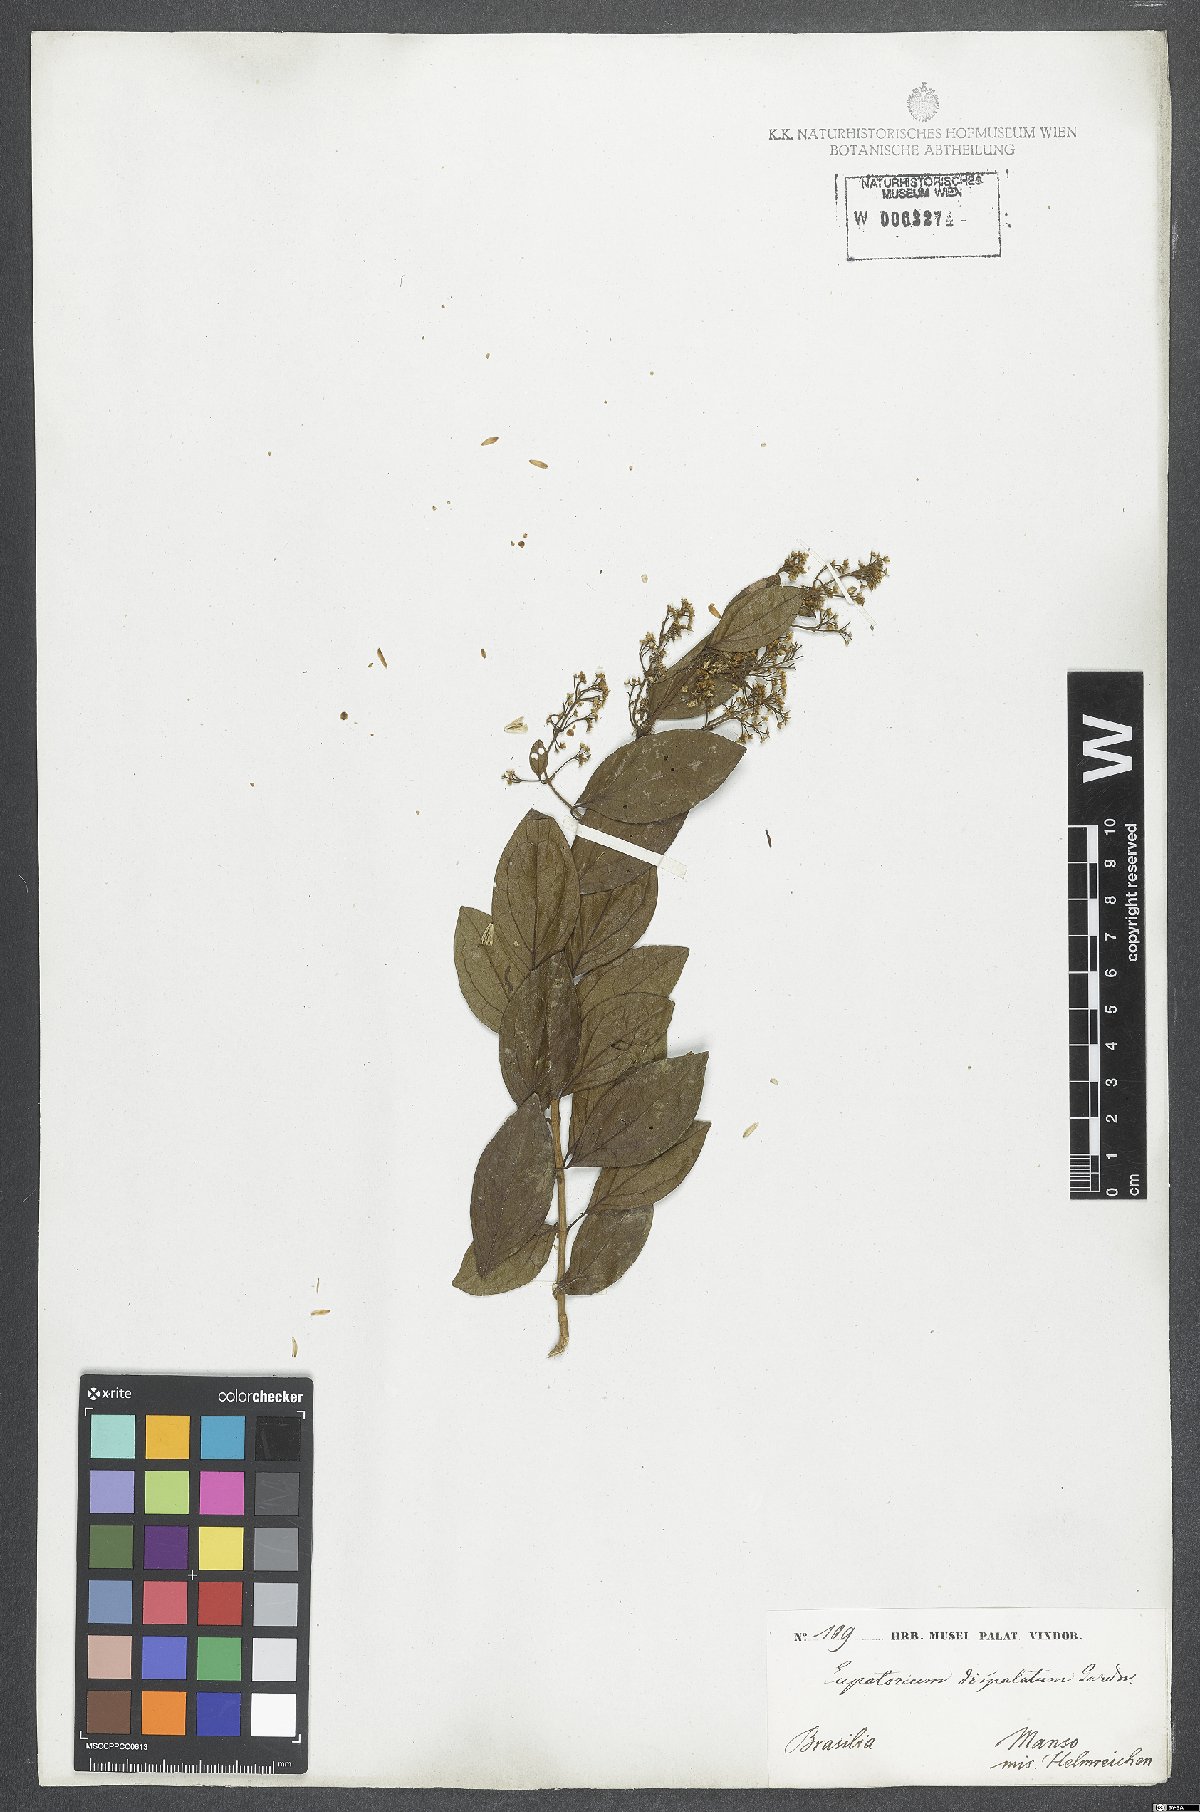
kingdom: Plantae
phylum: Tracheophyta
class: Magnoliopsida
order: Asterales
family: Asteraceae
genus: Steyermarkina
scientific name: Steyermarkina pyrifolia
